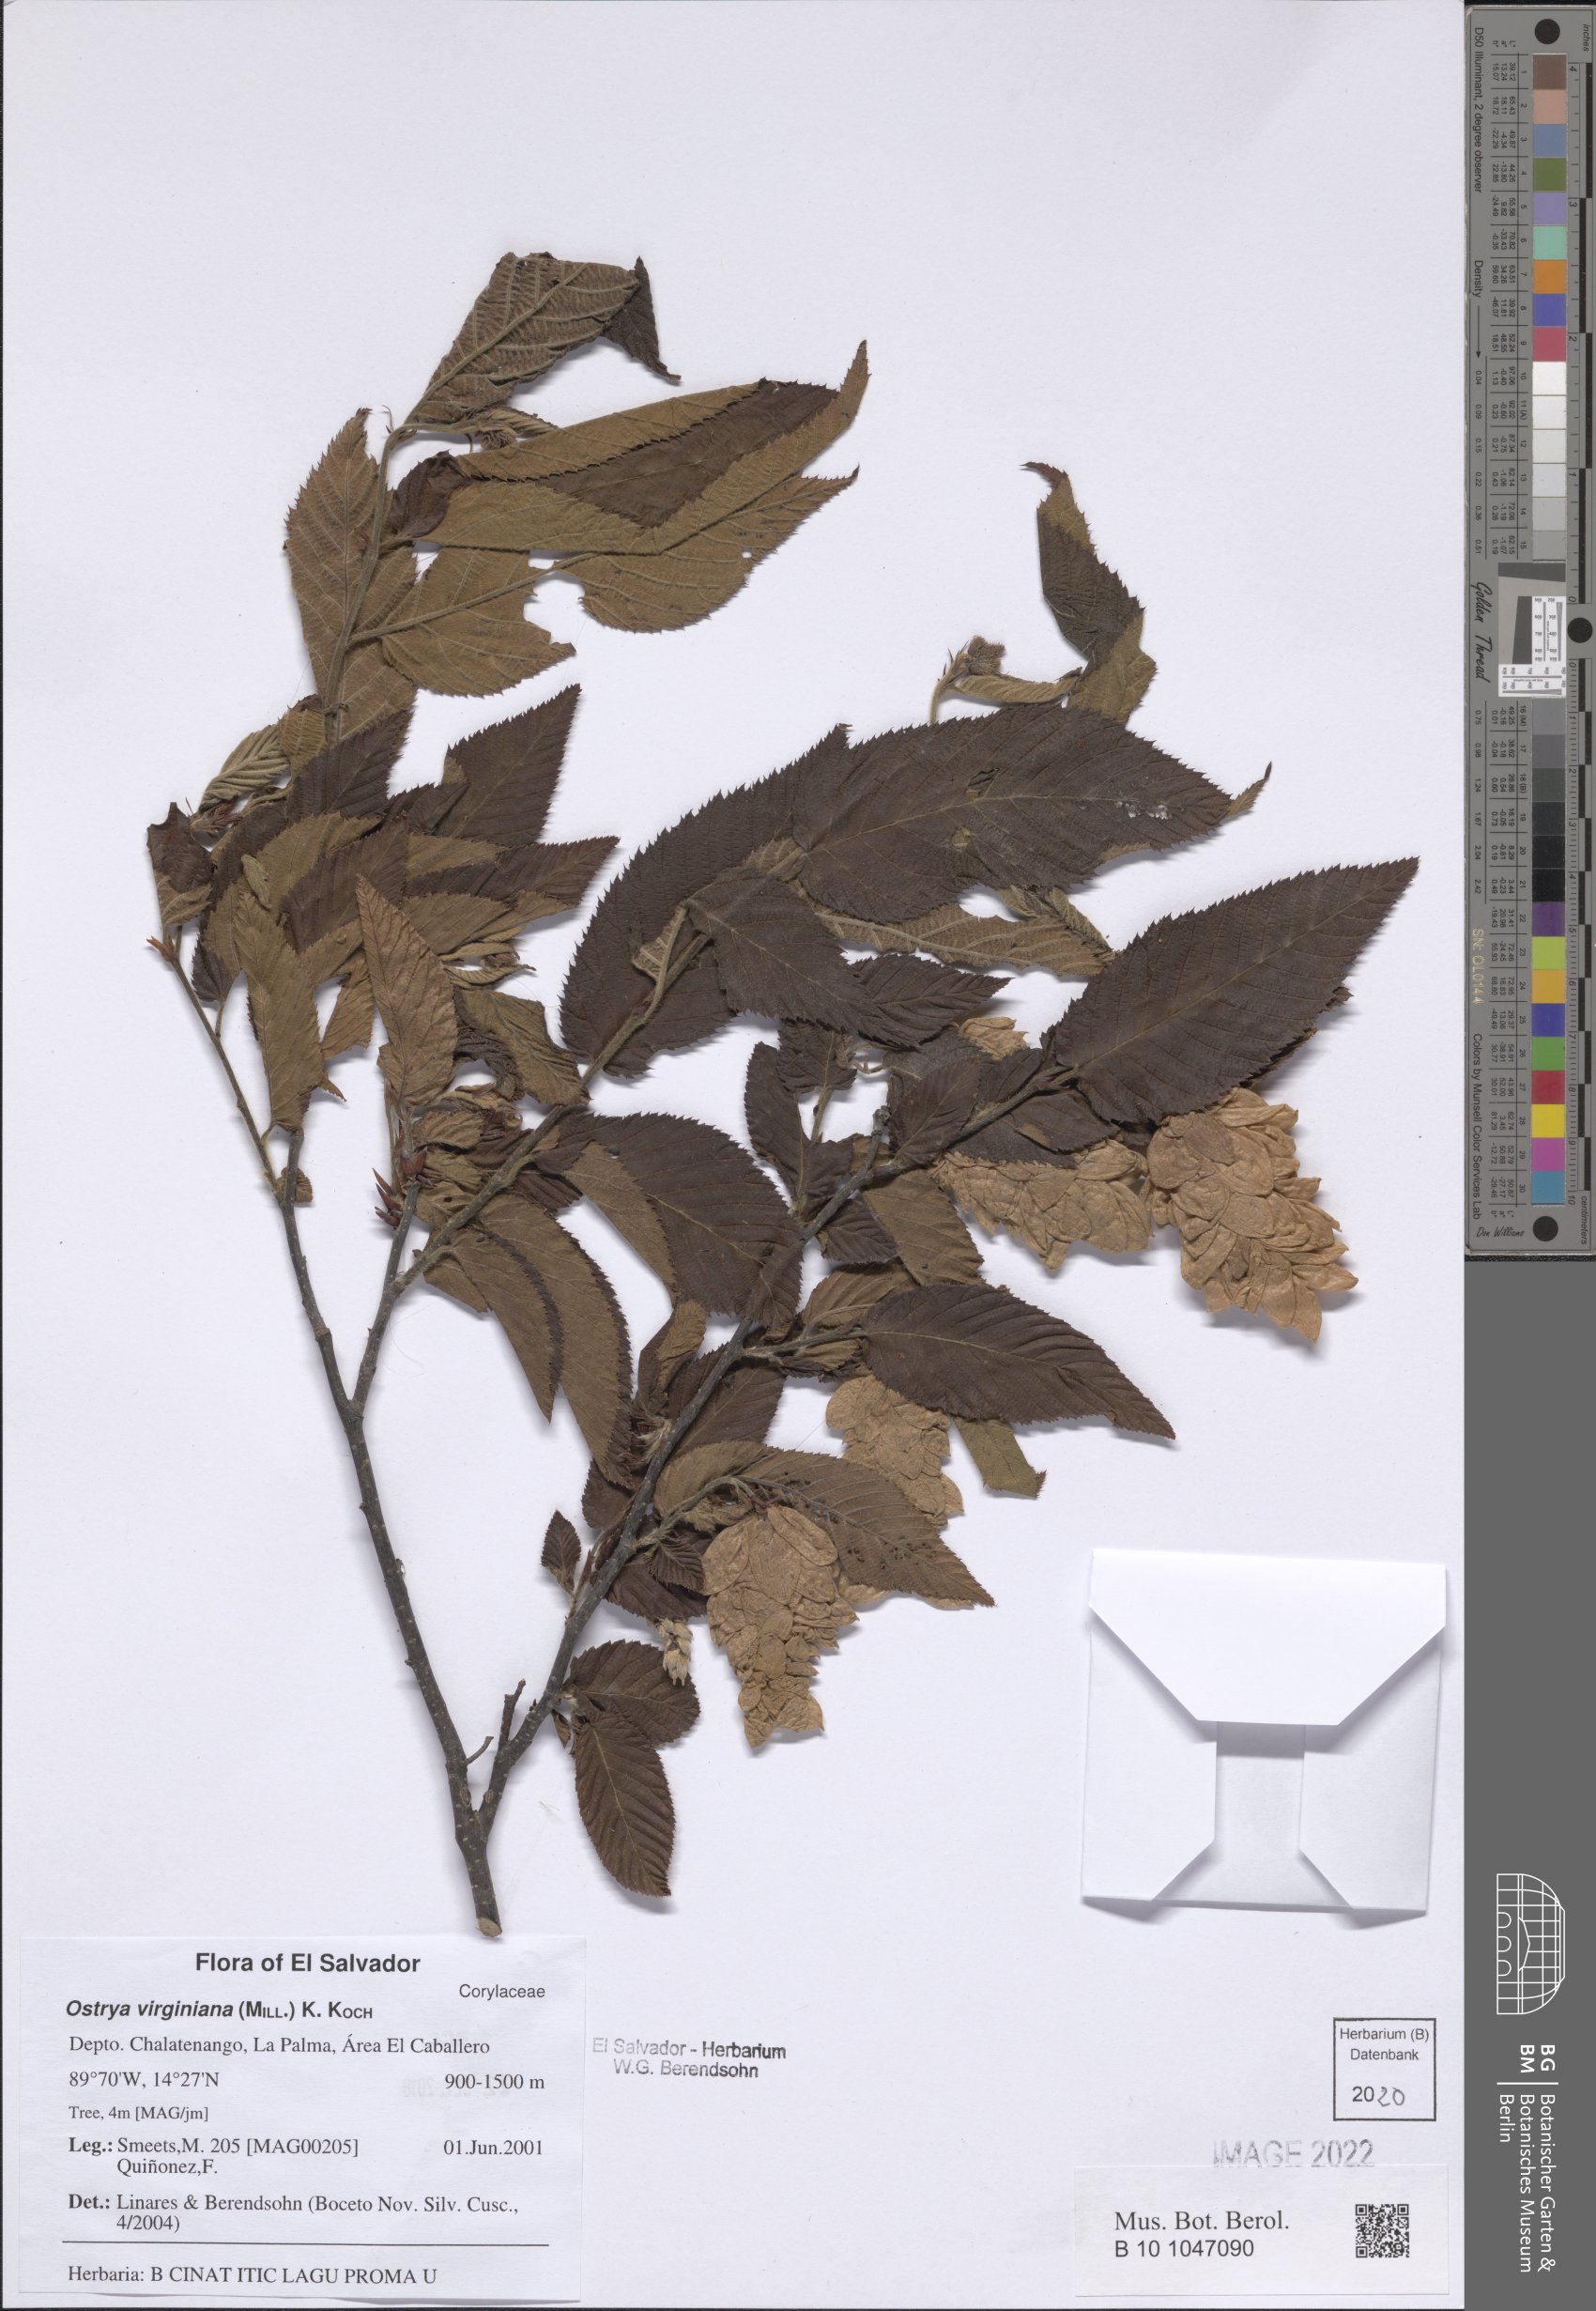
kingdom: Plantae
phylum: Tracheophyta
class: Magnoliopsida
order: Fagales
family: Betulaceae
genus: Ostrya
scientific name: Ostrya virginiana
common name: Ironwood
